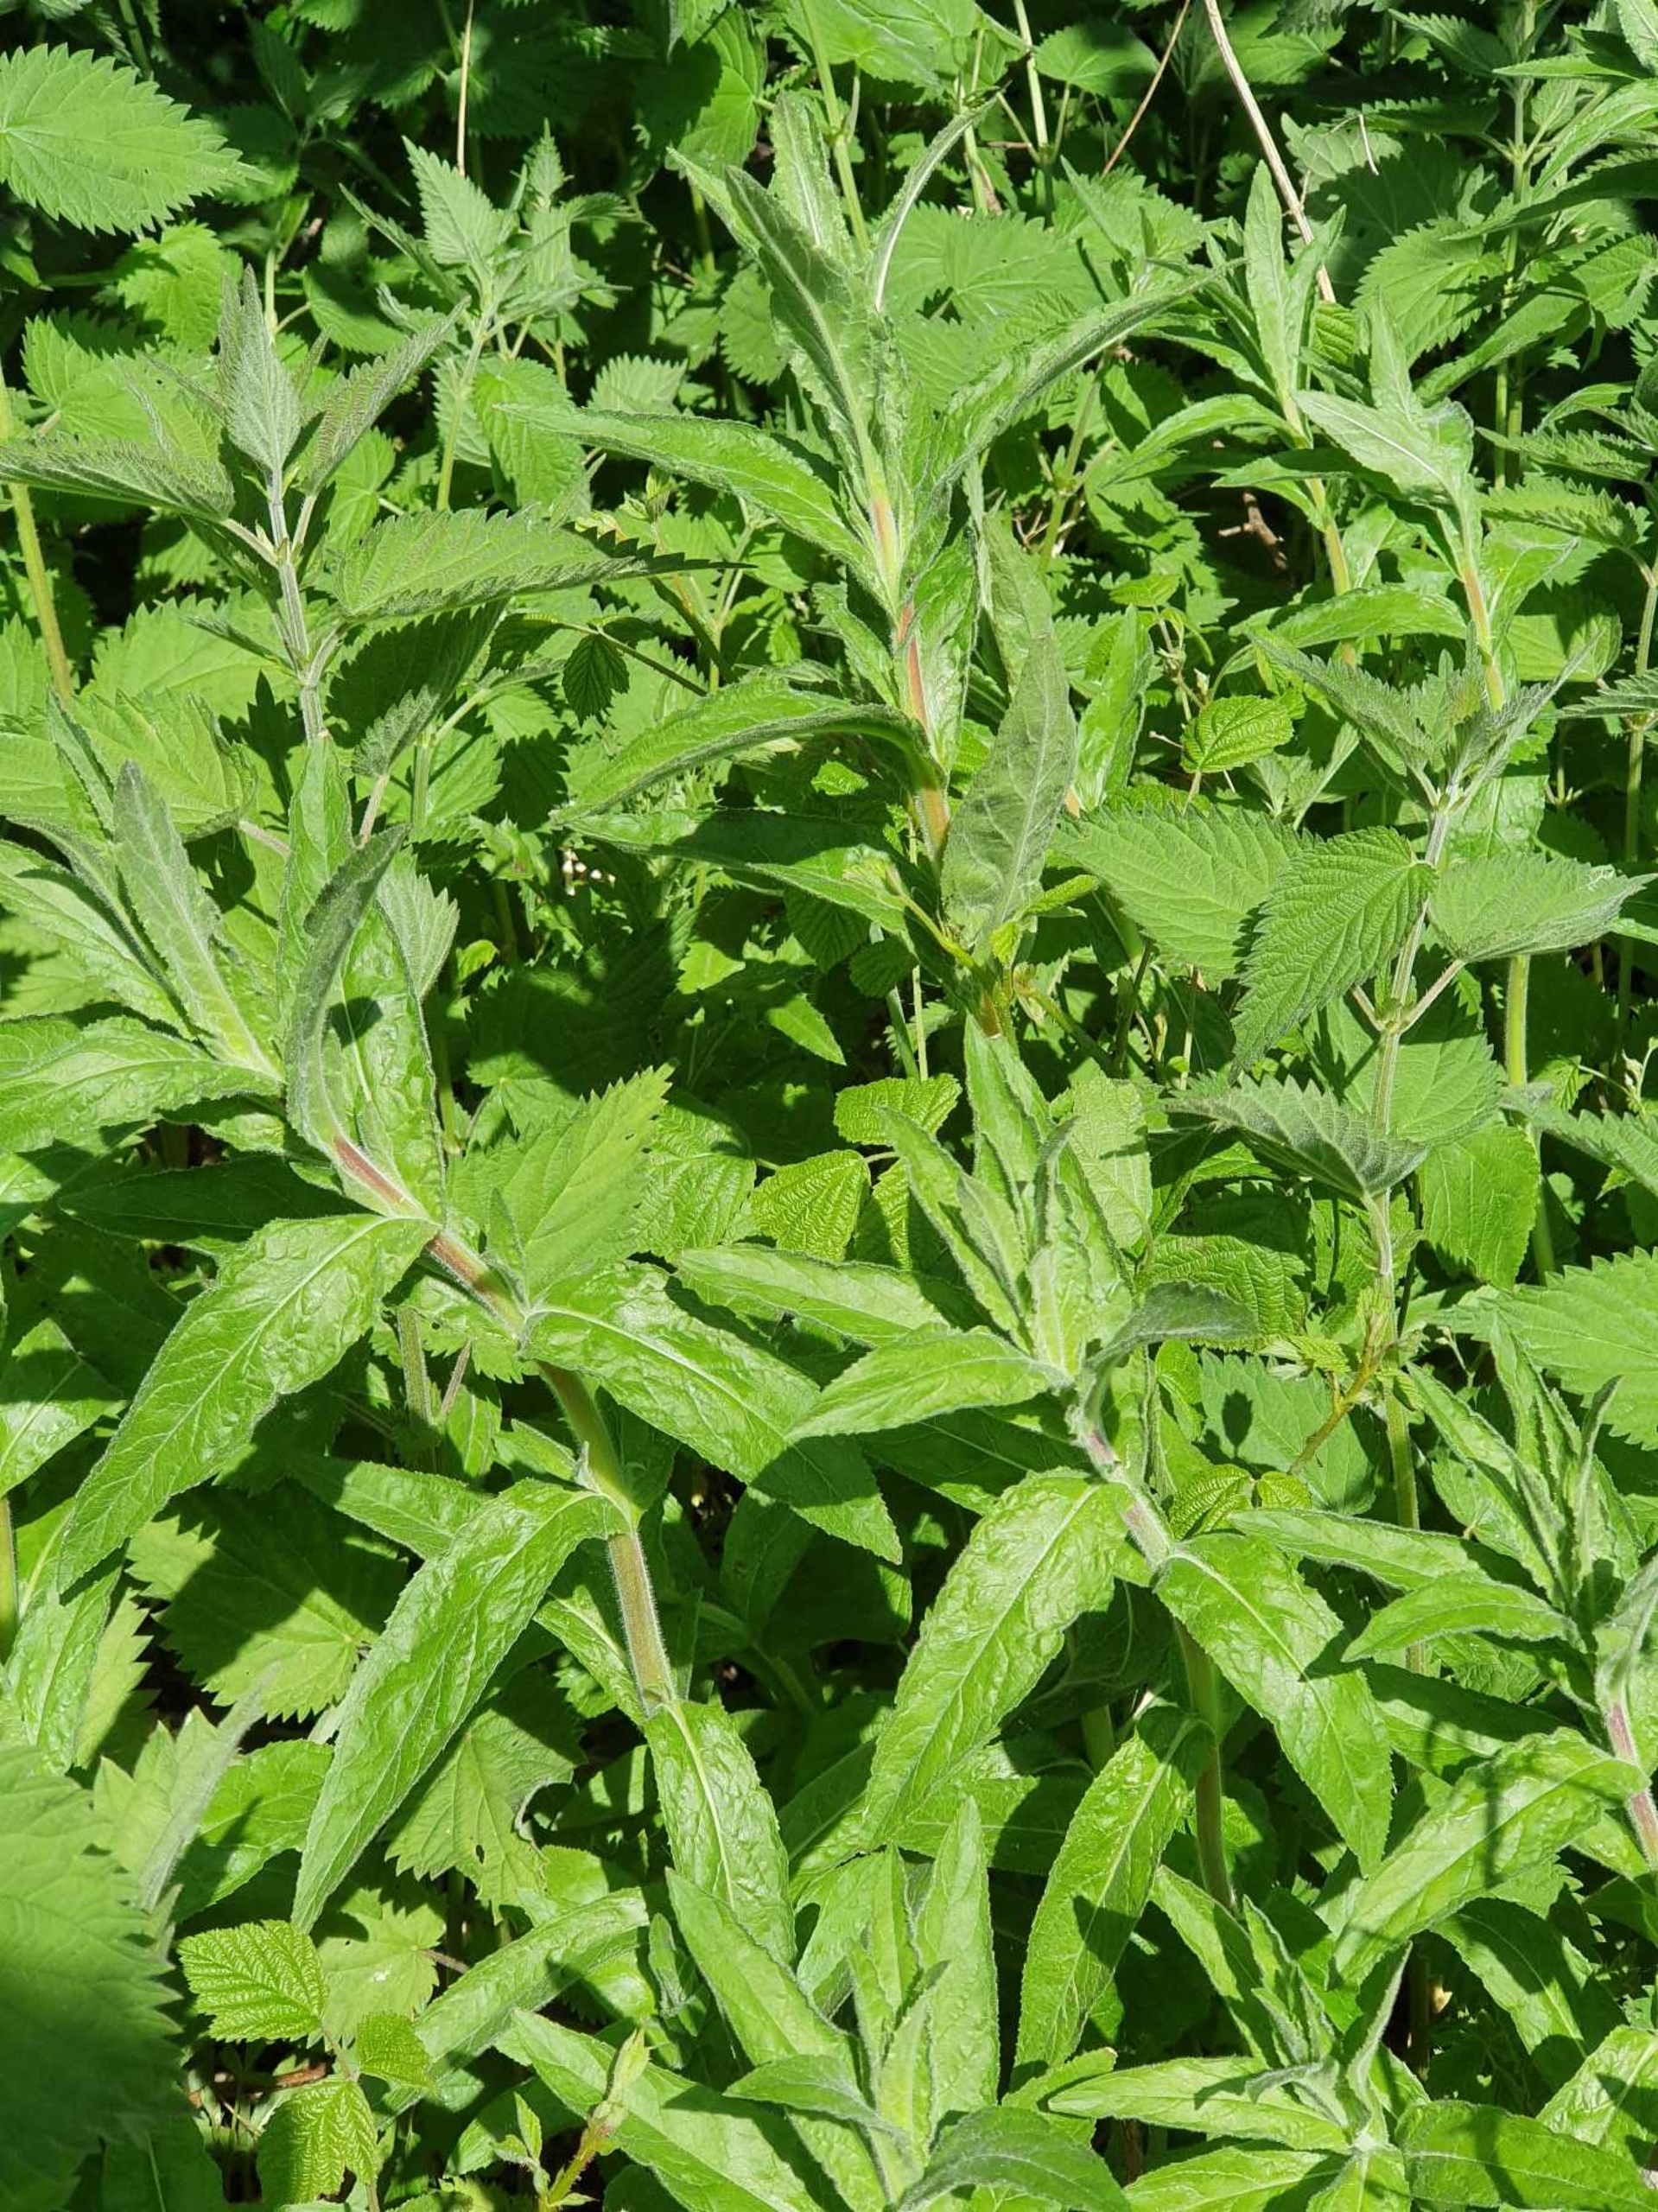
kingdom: Plantae
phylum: Tracheophyta
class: Magnoliopsida
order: Myrtales
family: Onagraceae
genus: Epilobium
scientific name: Epilobium hirsutum
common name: Lådden dueurt
